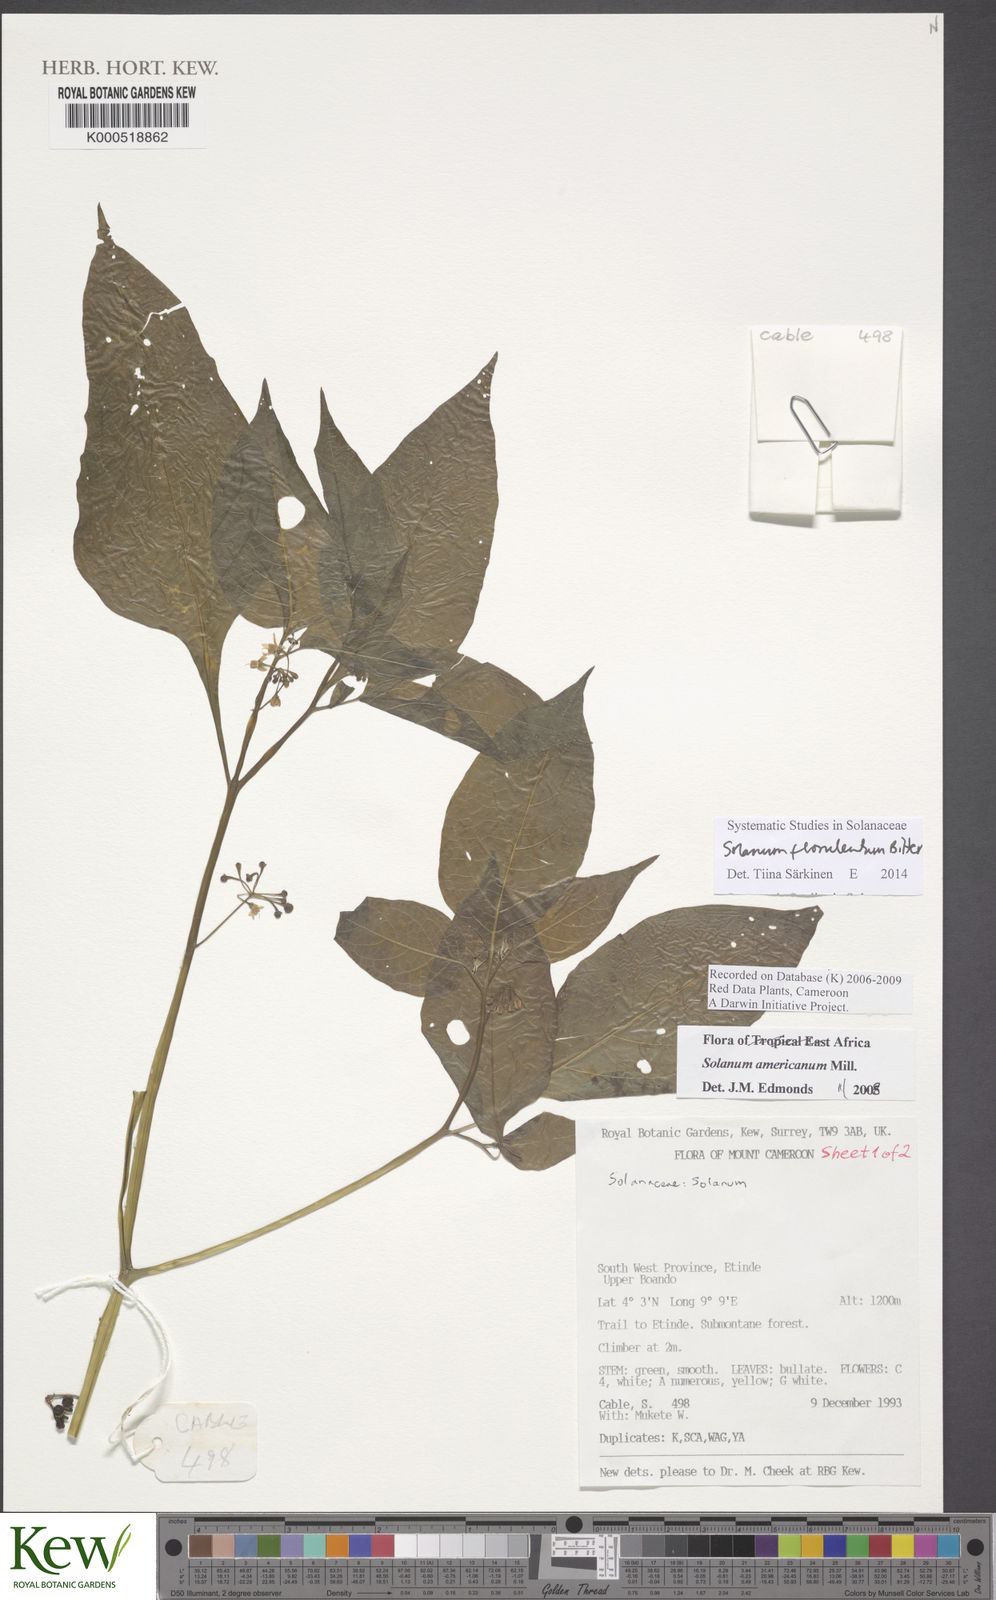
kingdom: Plantae
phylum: Tracheophyta
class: Magnoliopsida
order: Solanales
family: Solanaceae
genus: Solanum
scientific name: Solanum americanum
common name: American black nightshade
